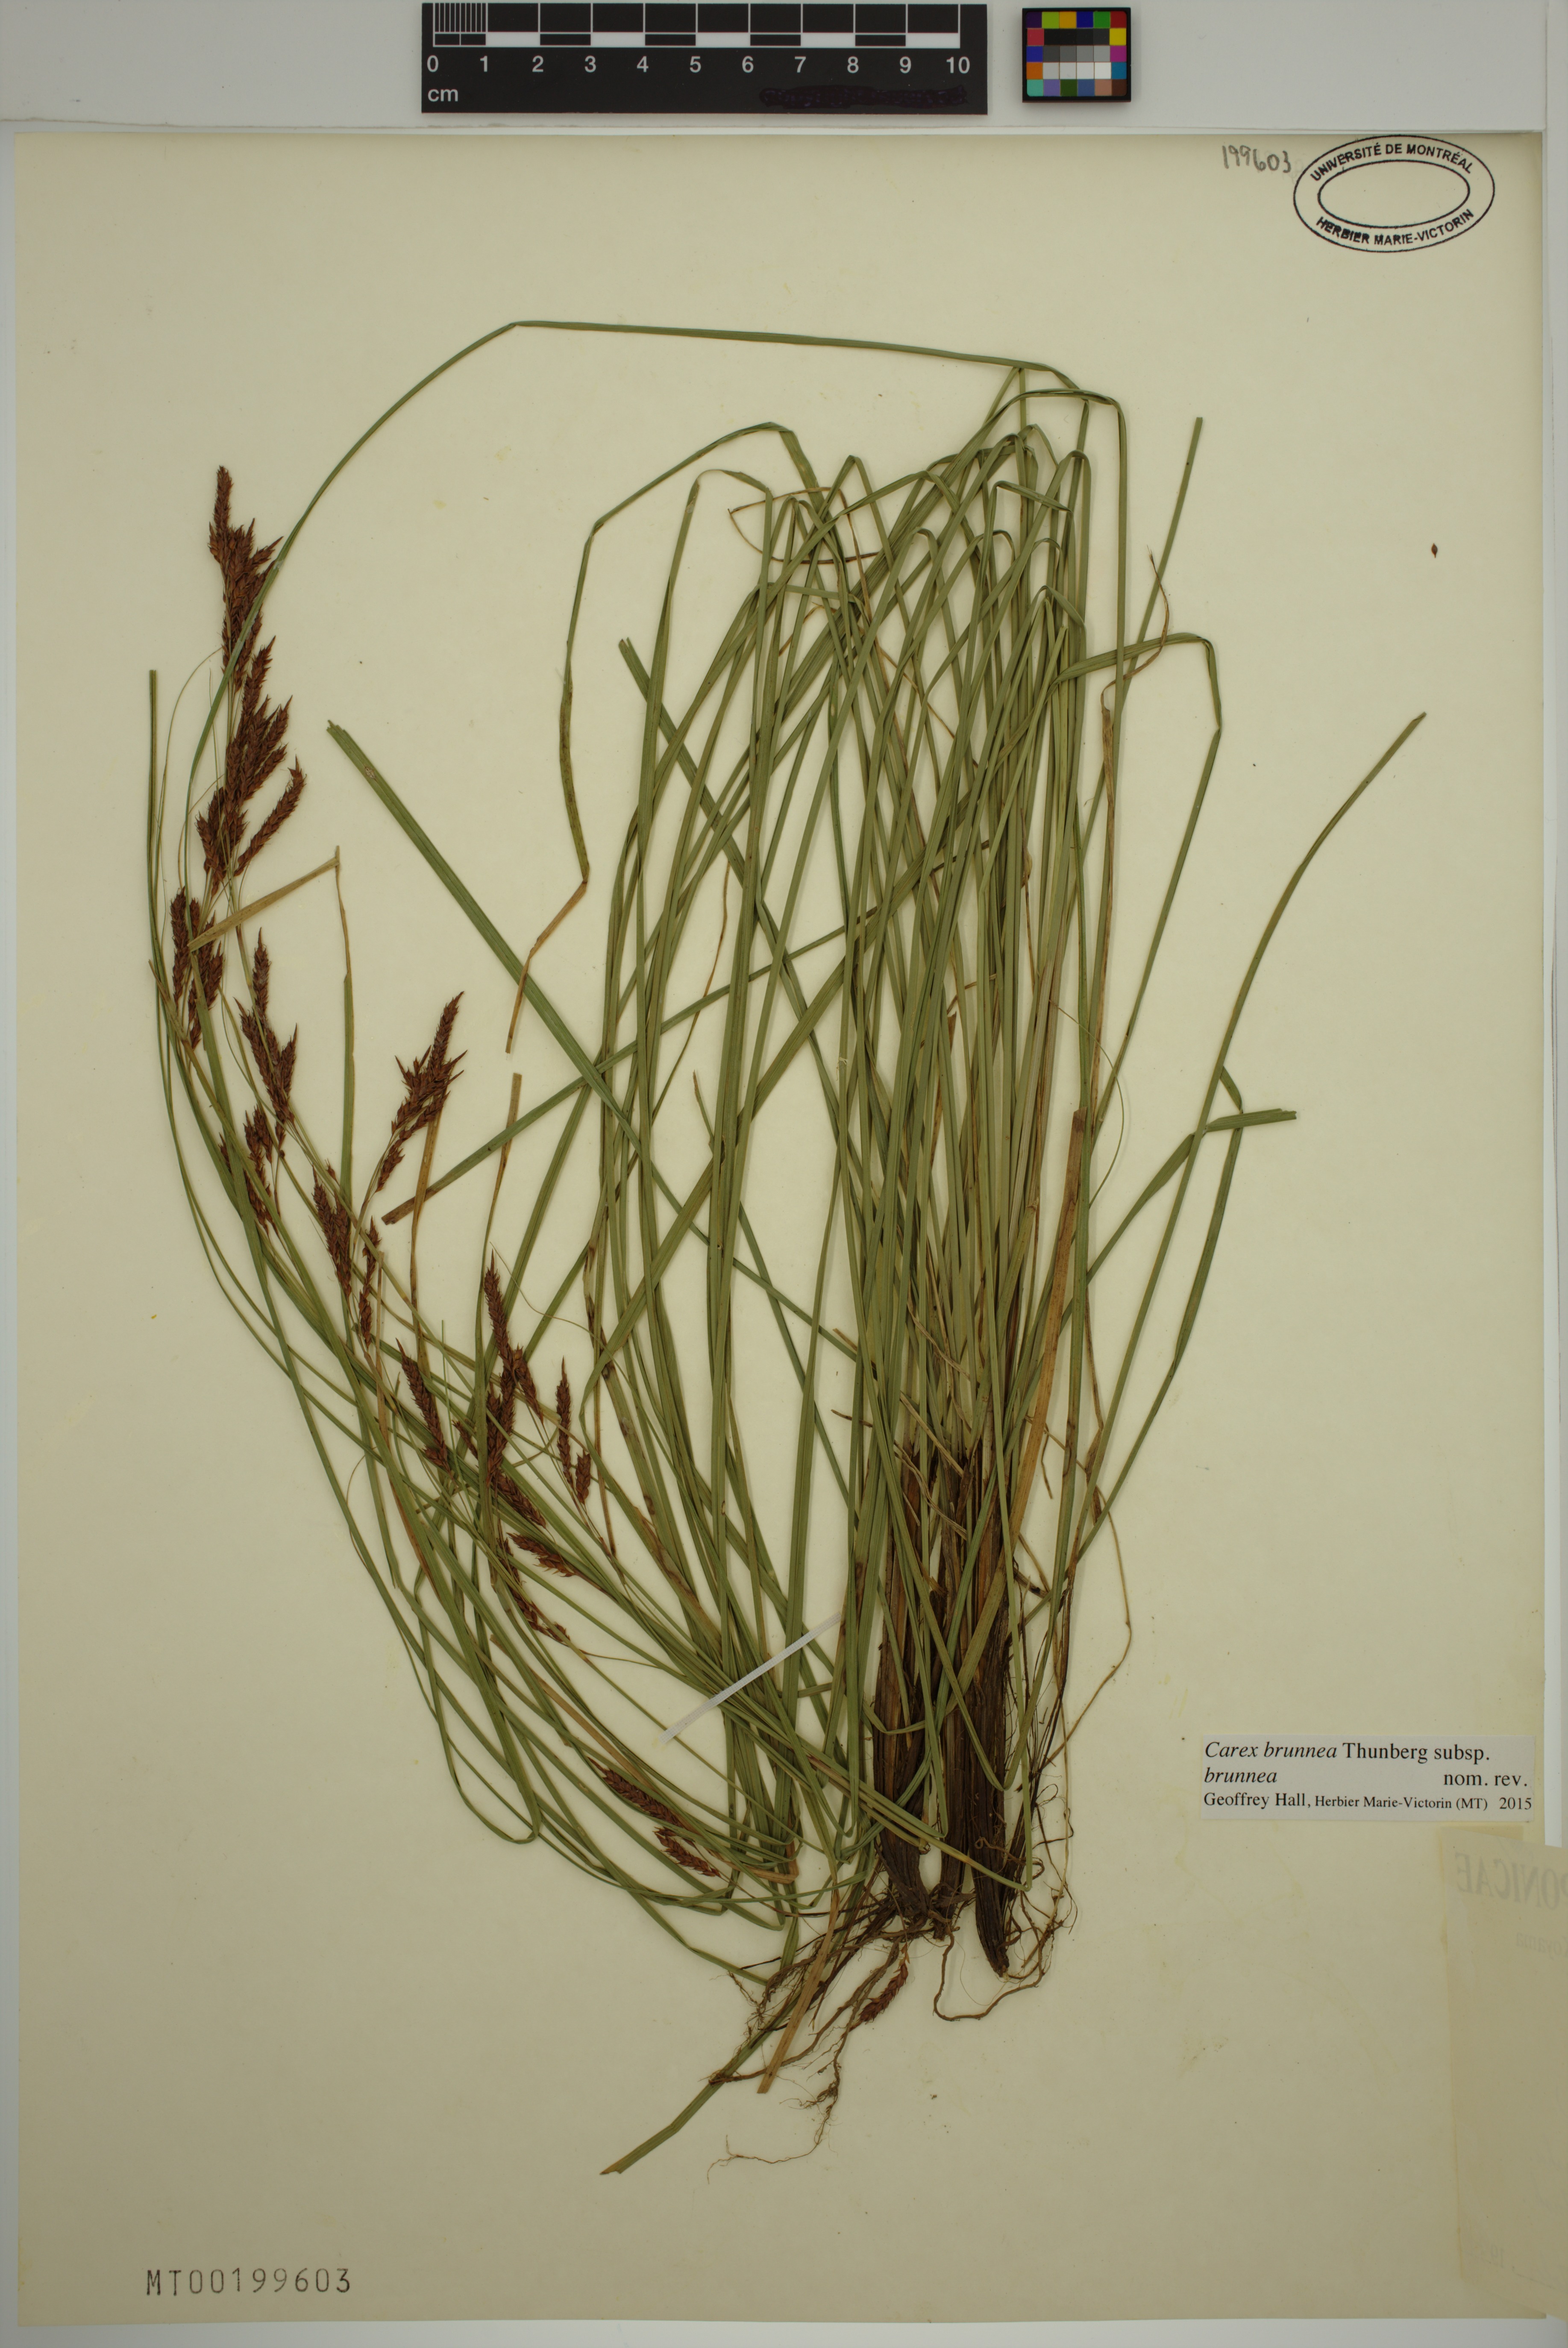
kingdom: Plantae
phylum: Tracheophyta
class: Liliopsida
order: Poales
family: Cyperaceae
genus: Carex
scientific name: Carex brunnea
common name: Greater brown sedge
